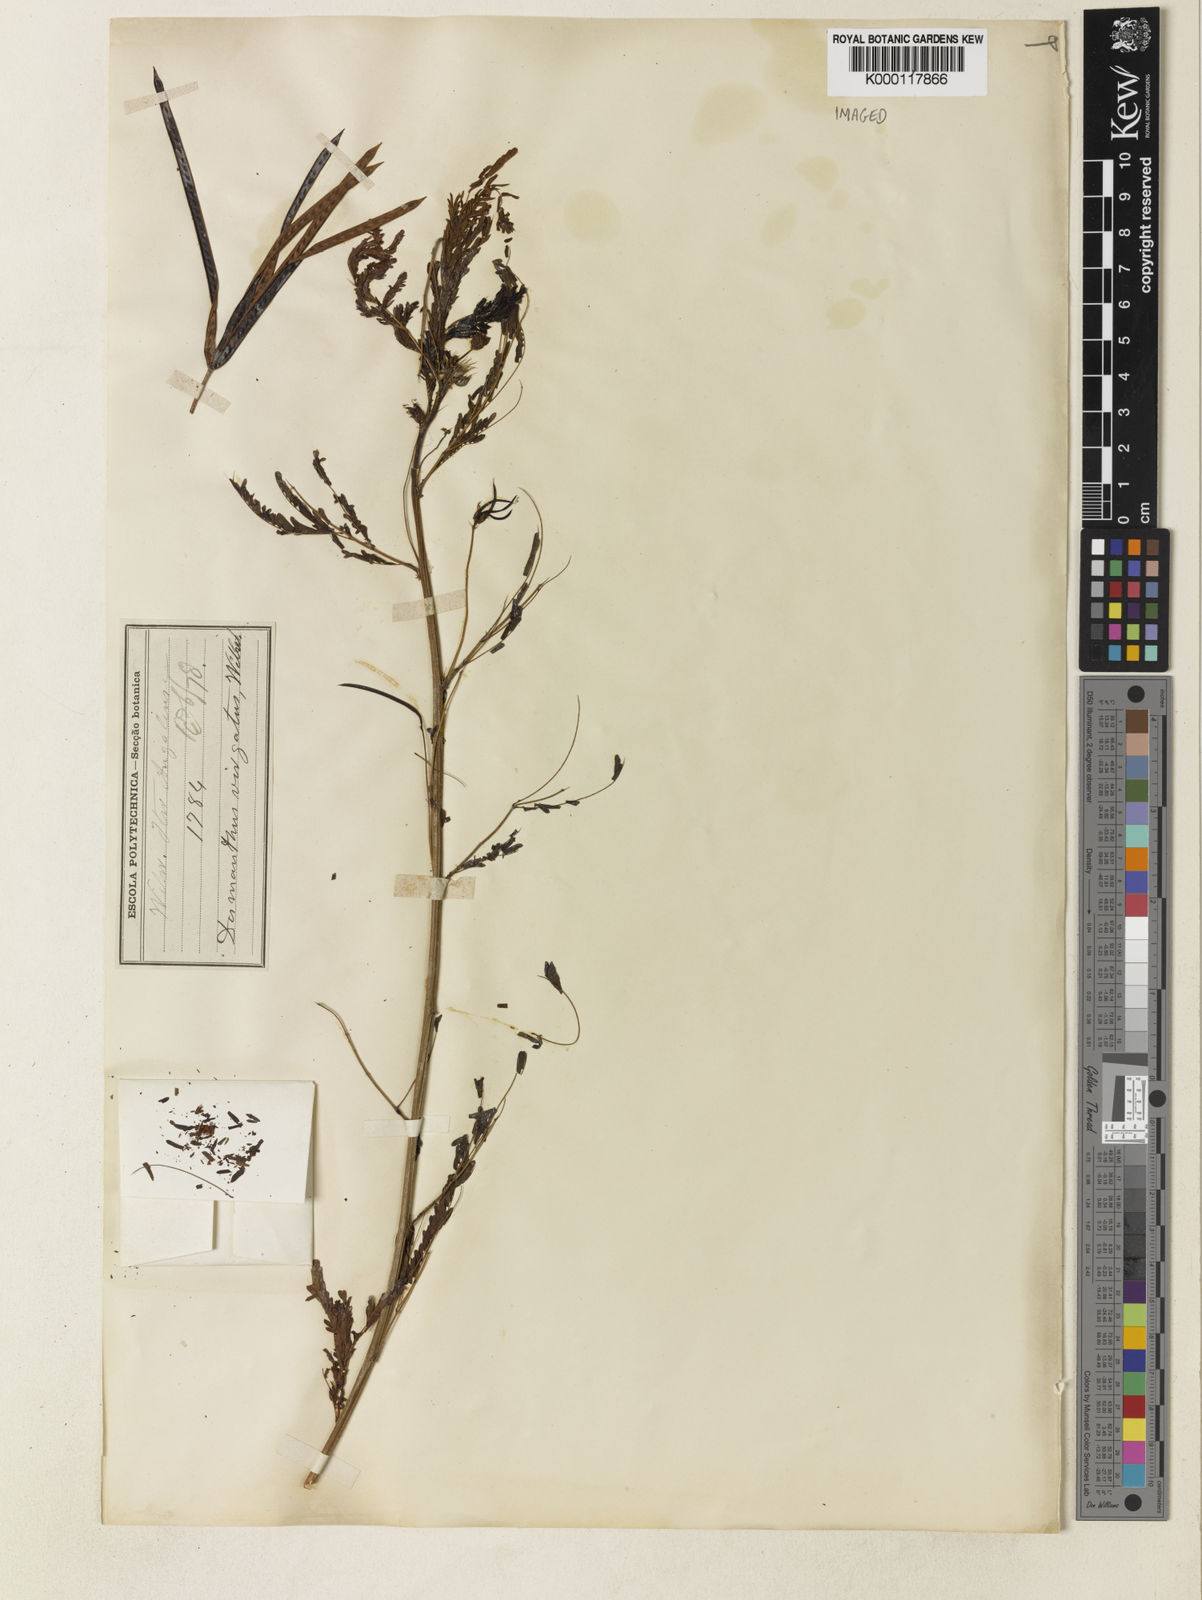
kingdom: Plantae
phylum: Tracheophyta
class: Magnoliopsida
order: Fabales
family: Fabaceae
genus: Desmanthus
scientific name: Desmanthus virgatus
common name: Wild tantan
